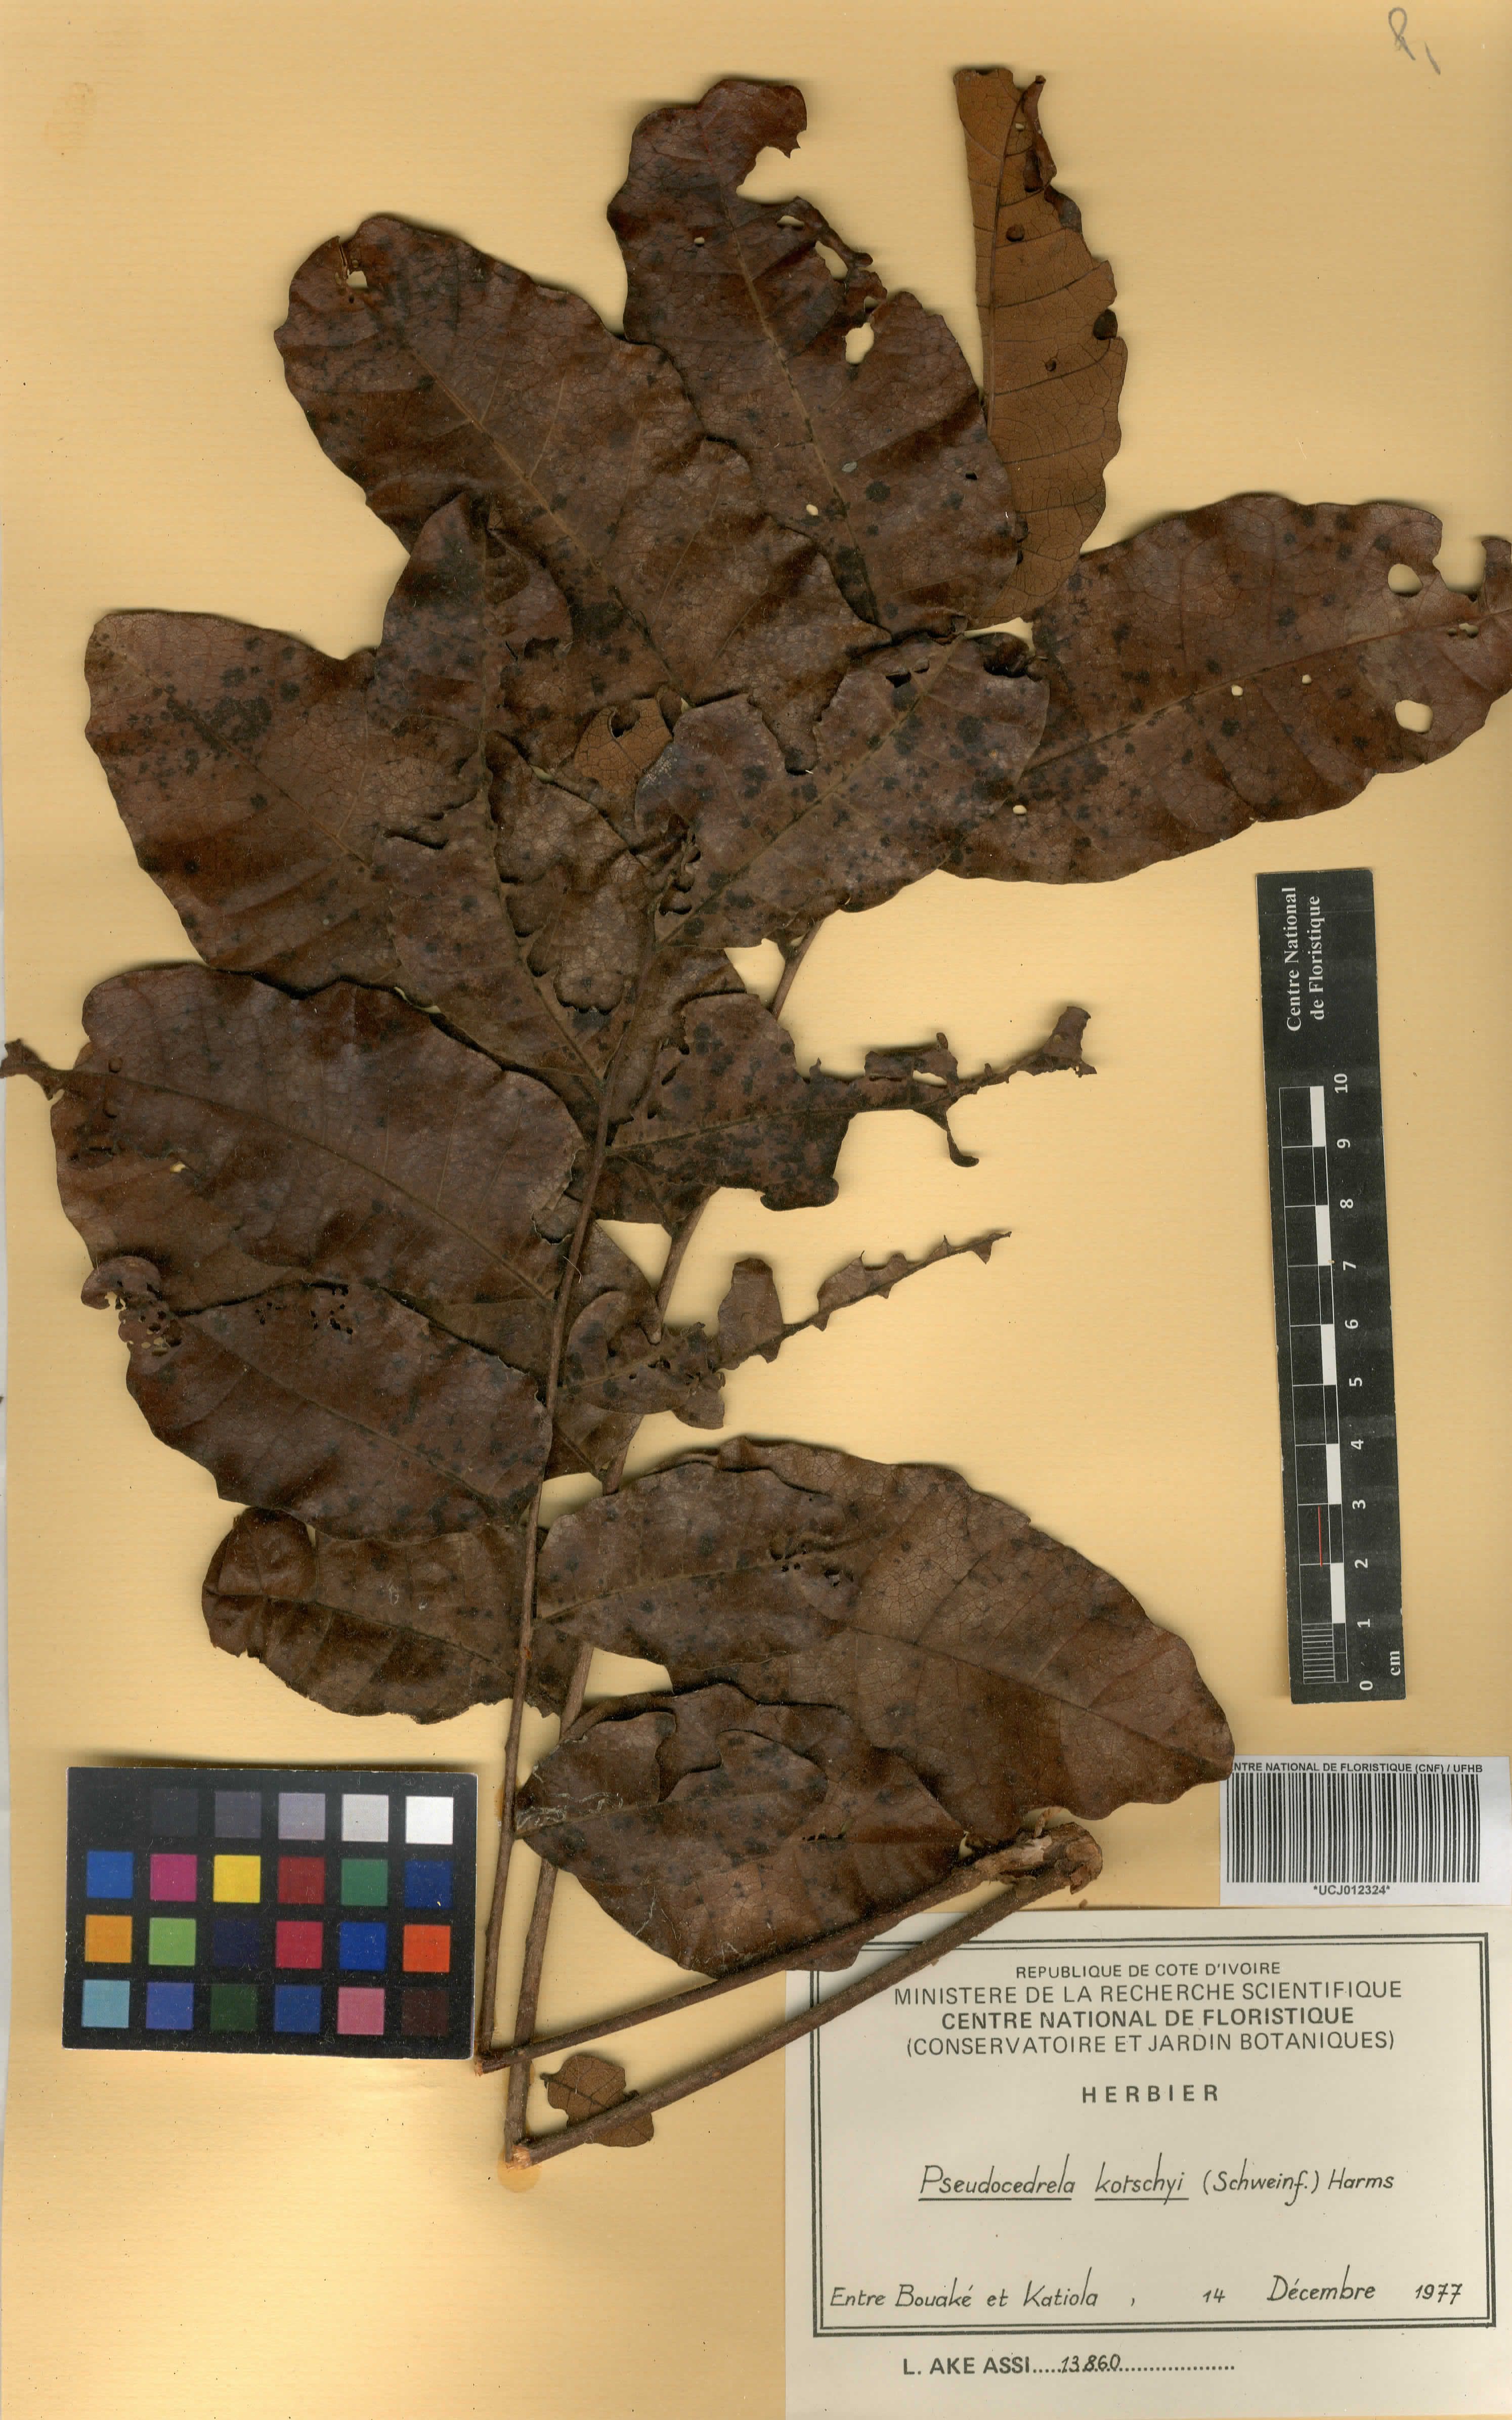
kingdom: Plantae
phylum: Tracheophyta
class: Magnoliopsida
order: Sapindales
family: Meliaceae
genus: Pseudocedrela
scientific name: Pseudocedrela kotschyi
